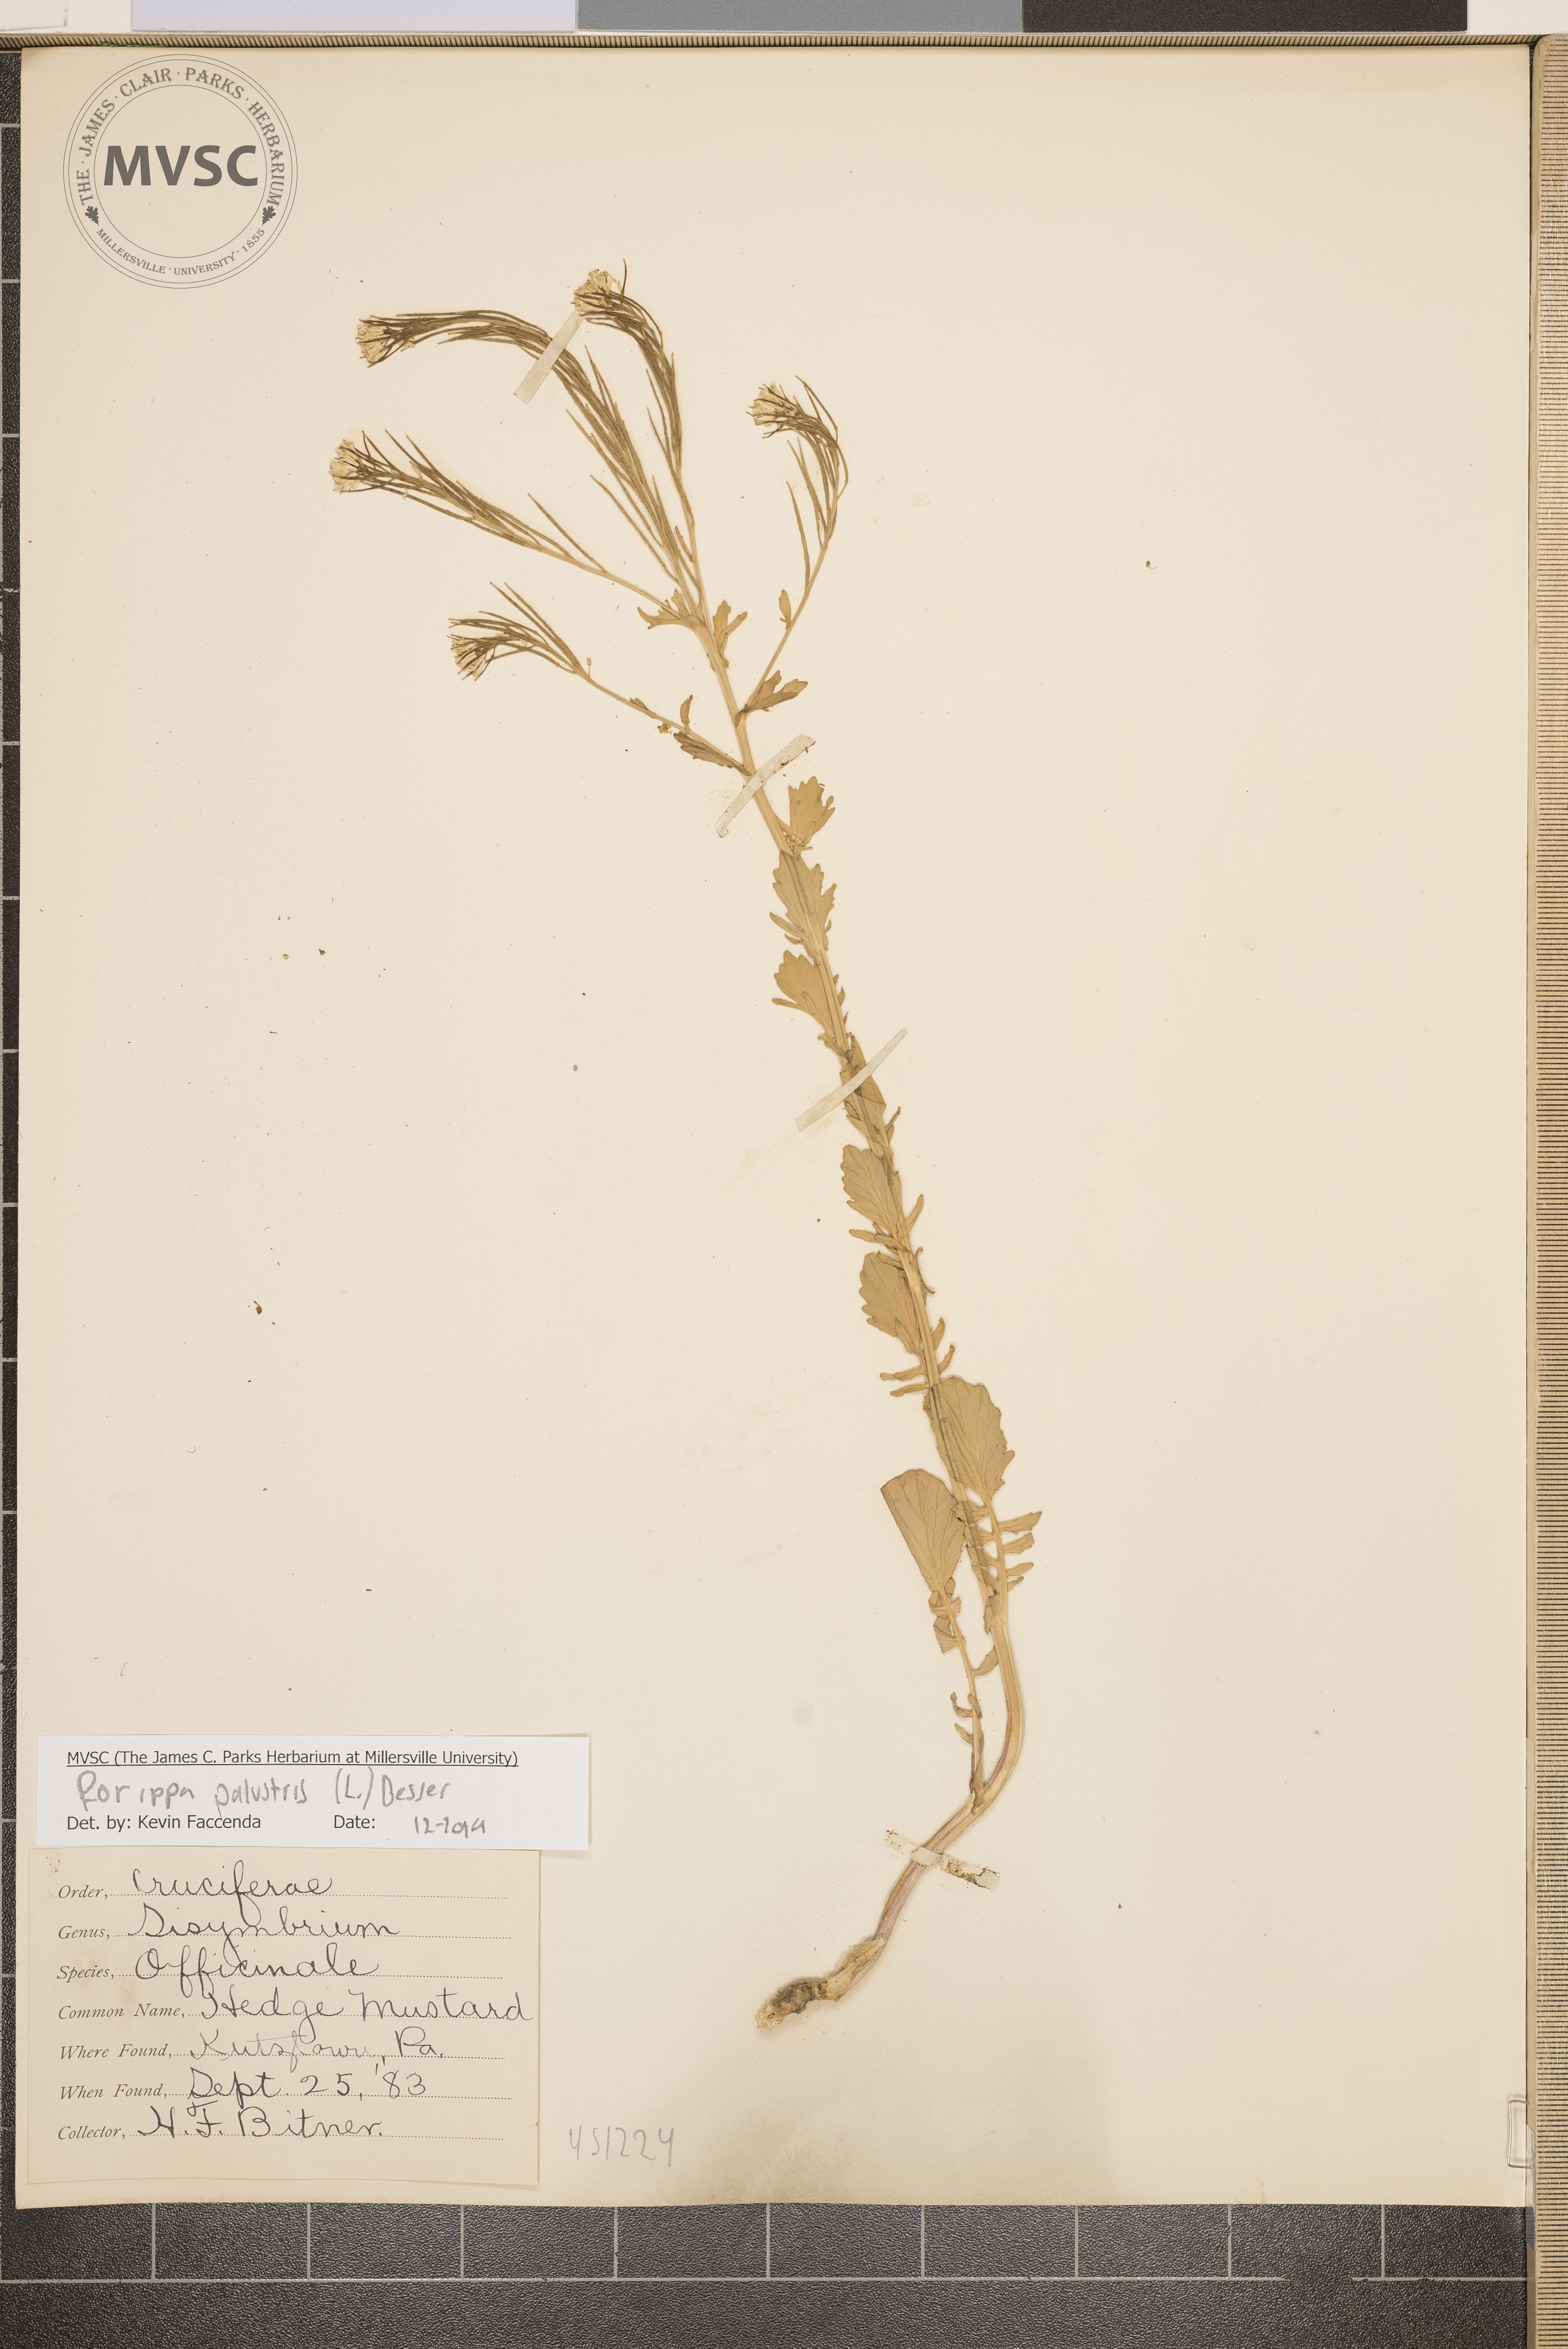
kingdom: Plantae
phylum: Tracheophyta
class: Magnoliopsida
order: Brassicales
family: Brassicaceae
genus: Rorippa
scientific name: Rorippa palustris
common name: Marsh yellow-cress
